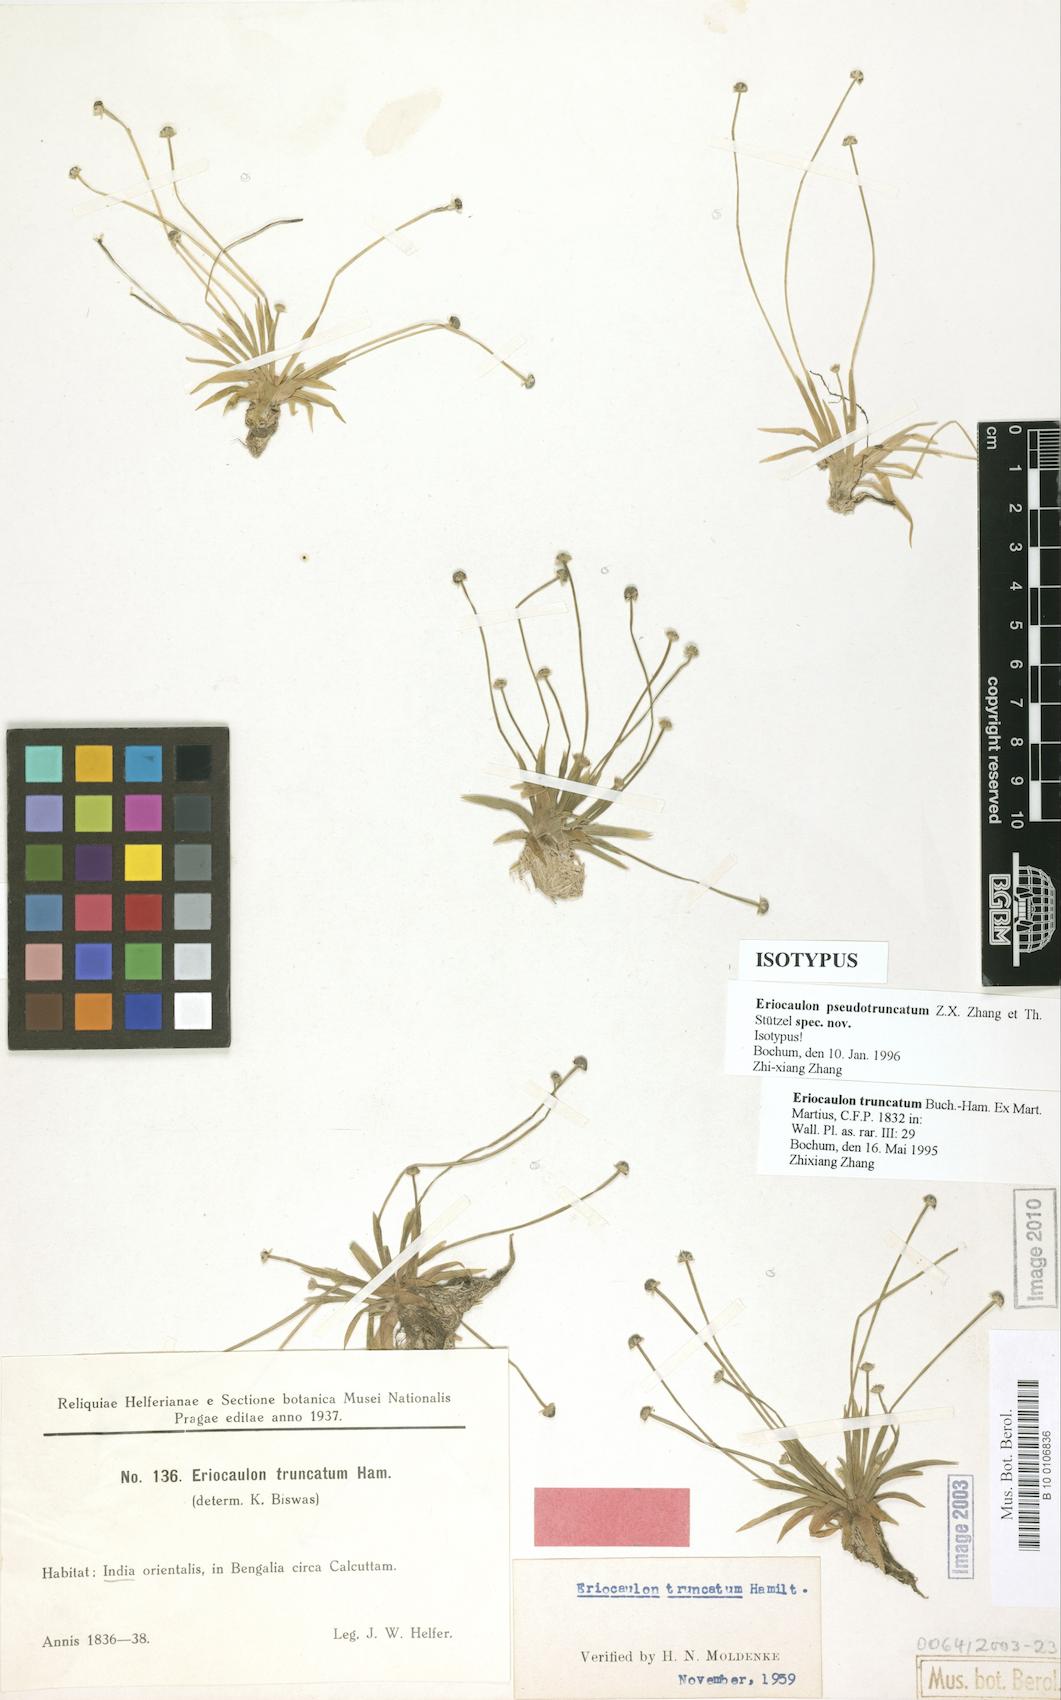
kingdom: Plantae
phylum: Tracheophyta
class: Liliopsida
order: Poales
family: Eriocaulaceae
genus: Eriocaulon
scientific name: Eriocaulon pseudotruncatum
